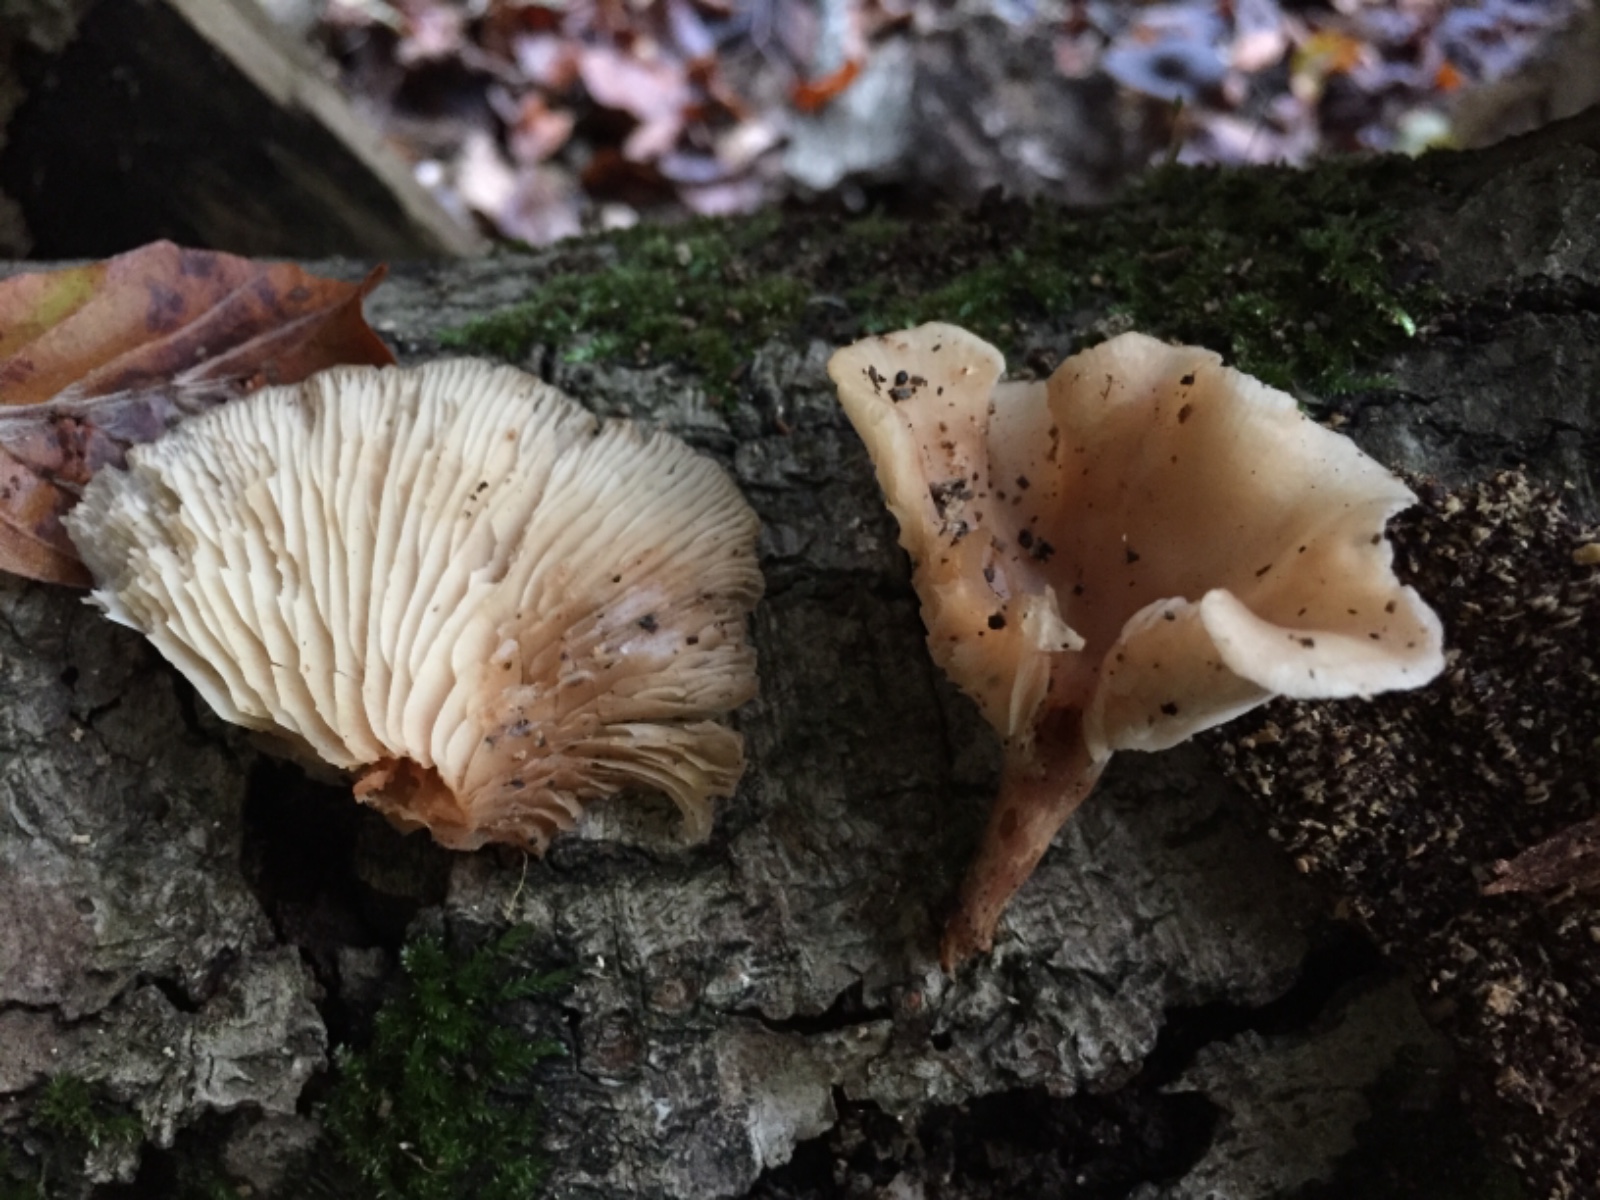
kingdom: Fungi
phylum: Basidiomycota
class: Agaricomycetes
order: Agaricales
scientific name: Agaricales
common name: champignonordenen
